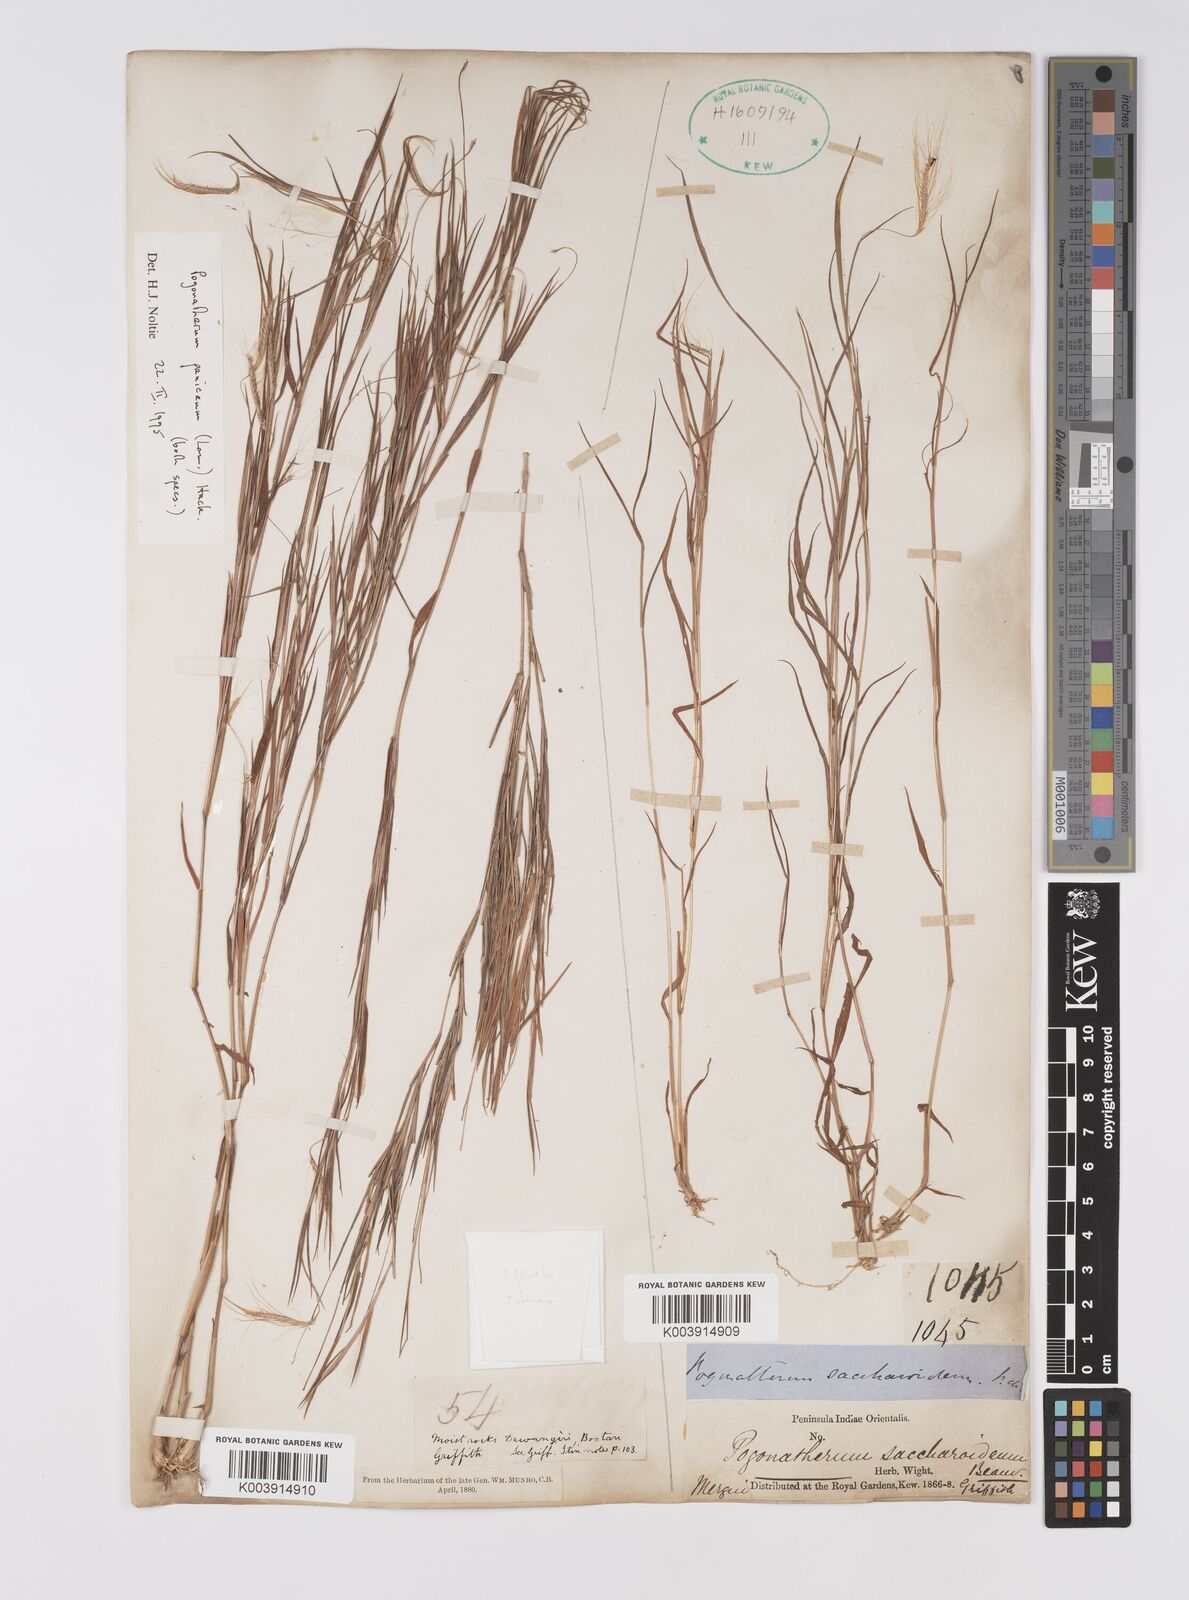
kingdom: Plantae
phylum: Tracheophyta
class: Liliopsida
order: Poales
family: Poaceae
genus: Pogonatherum
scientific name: Pogonatherum paniceum
